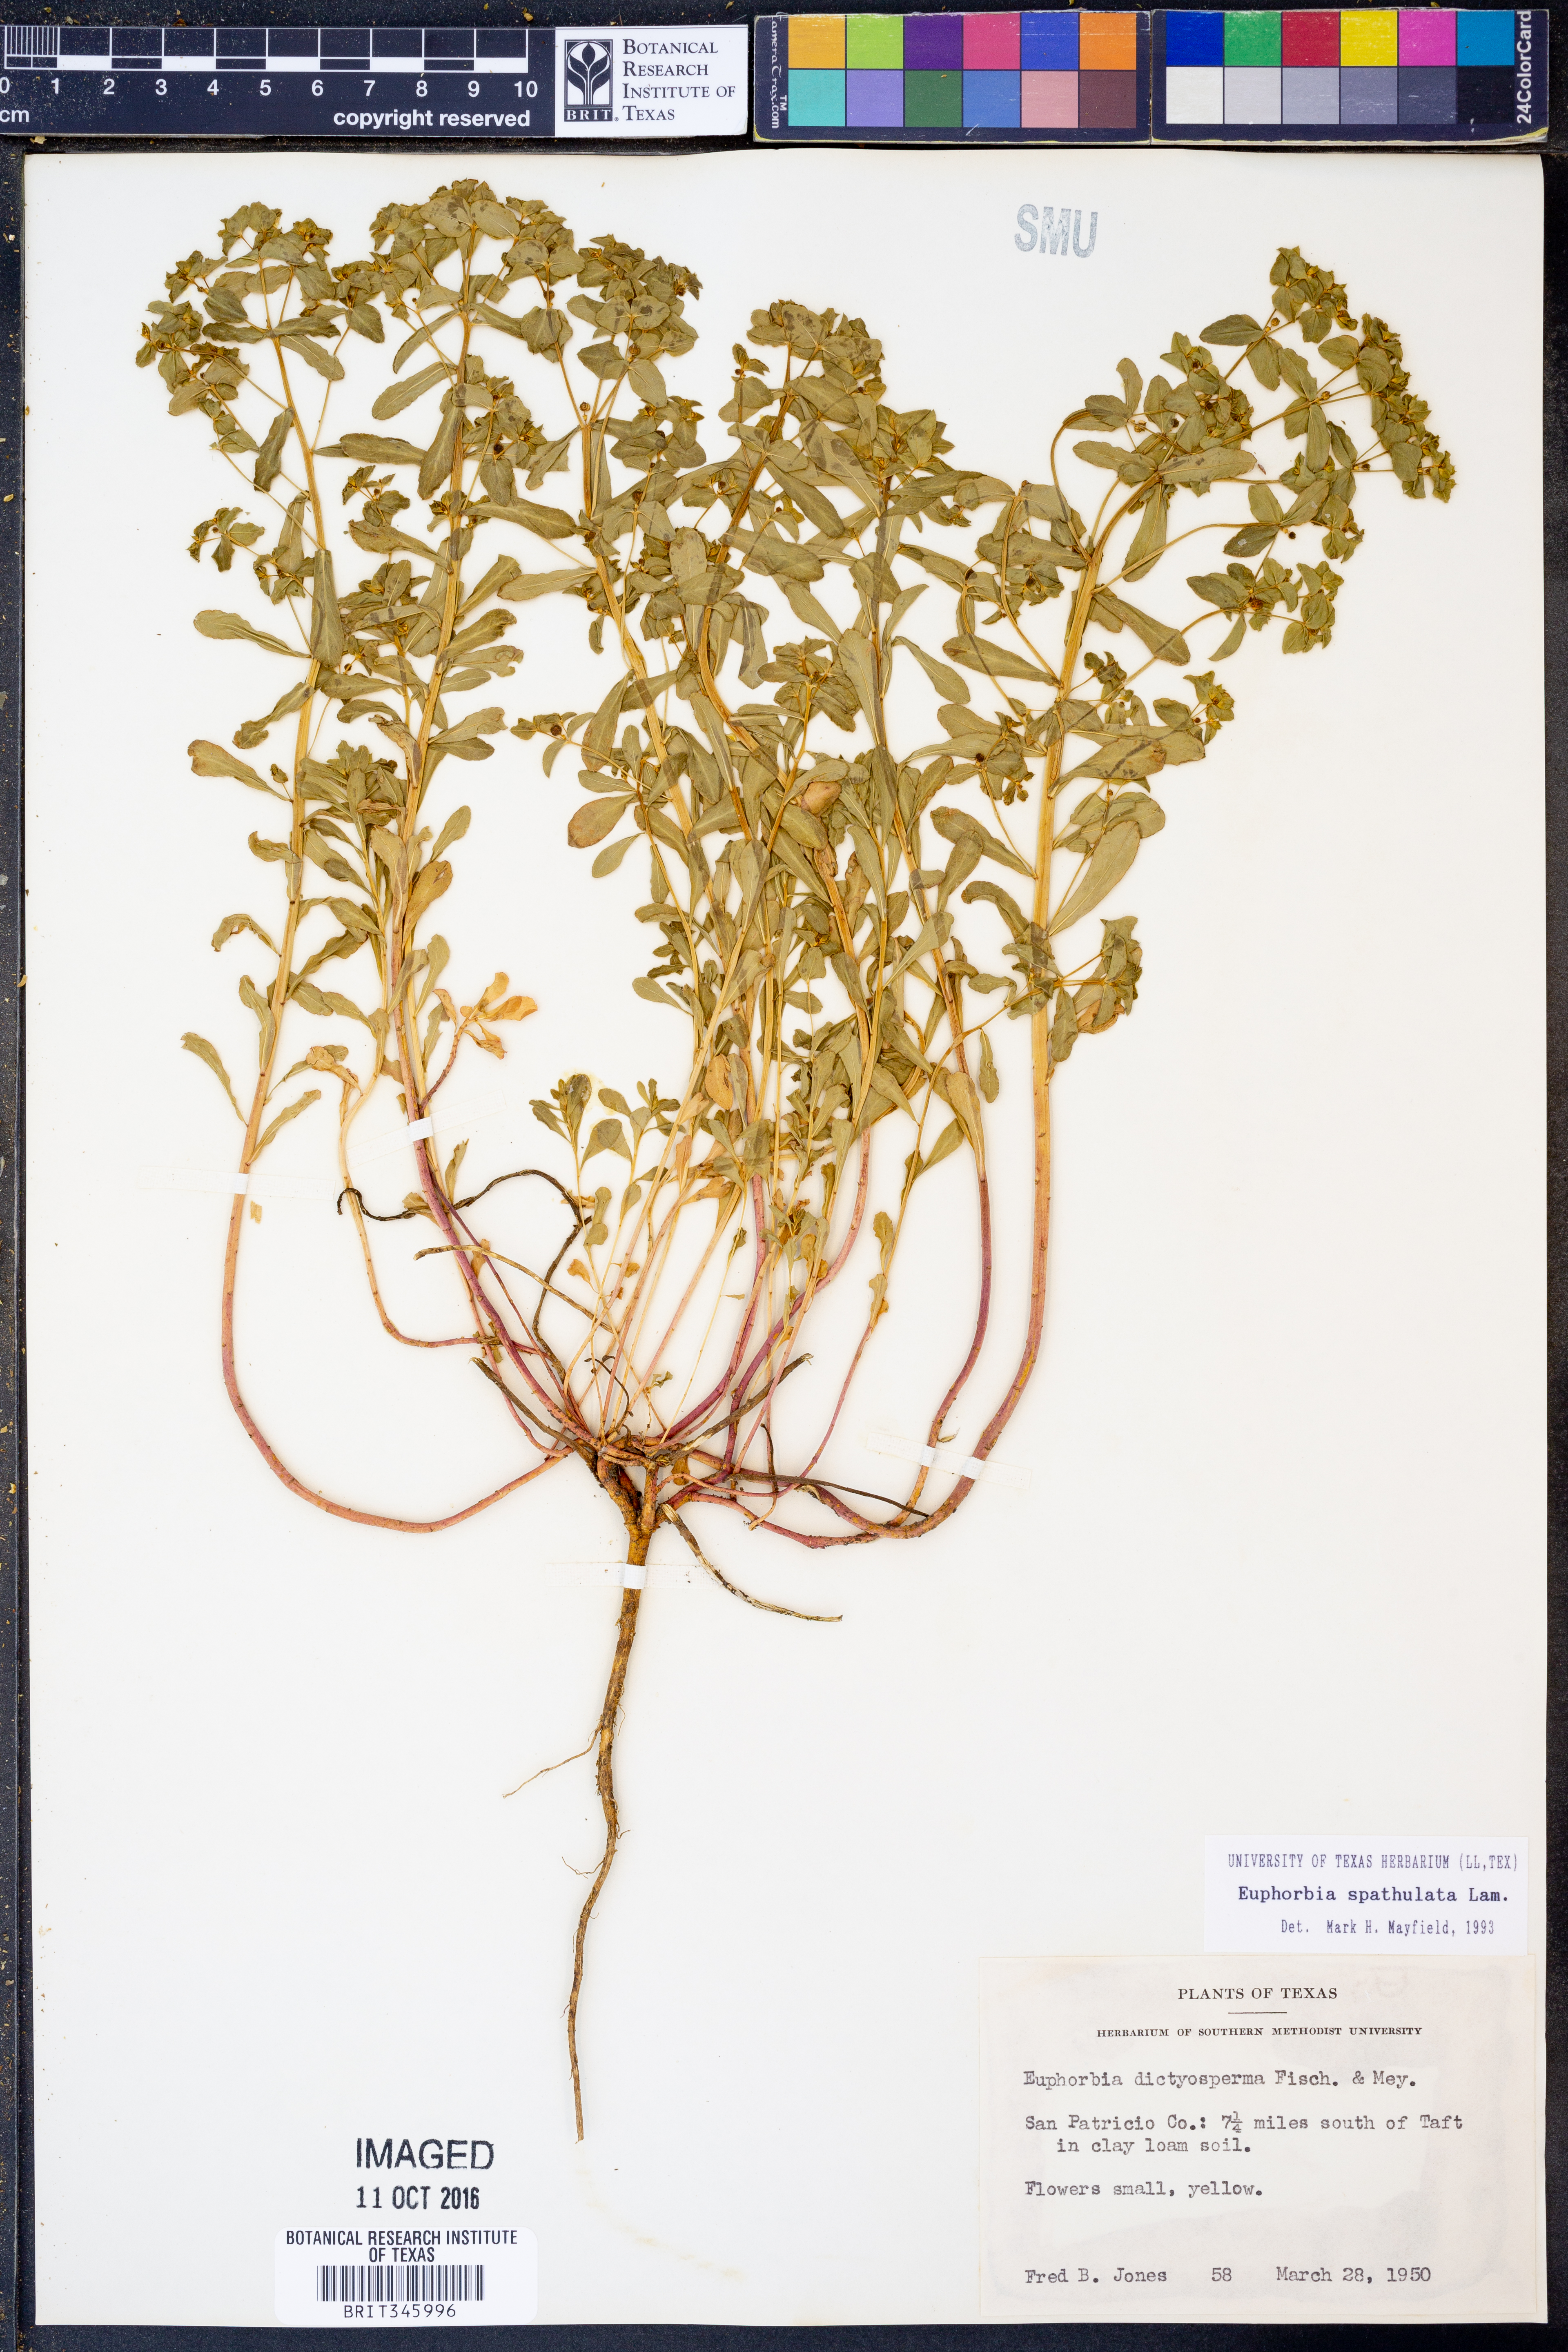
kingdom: Plantae
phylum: Tracheophyta
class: Magnoliopsida
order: Malpighiales
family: Euphorbiaceae
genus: Euphorbia
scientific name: Euphorbia spathulata
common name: Blunt spurge
